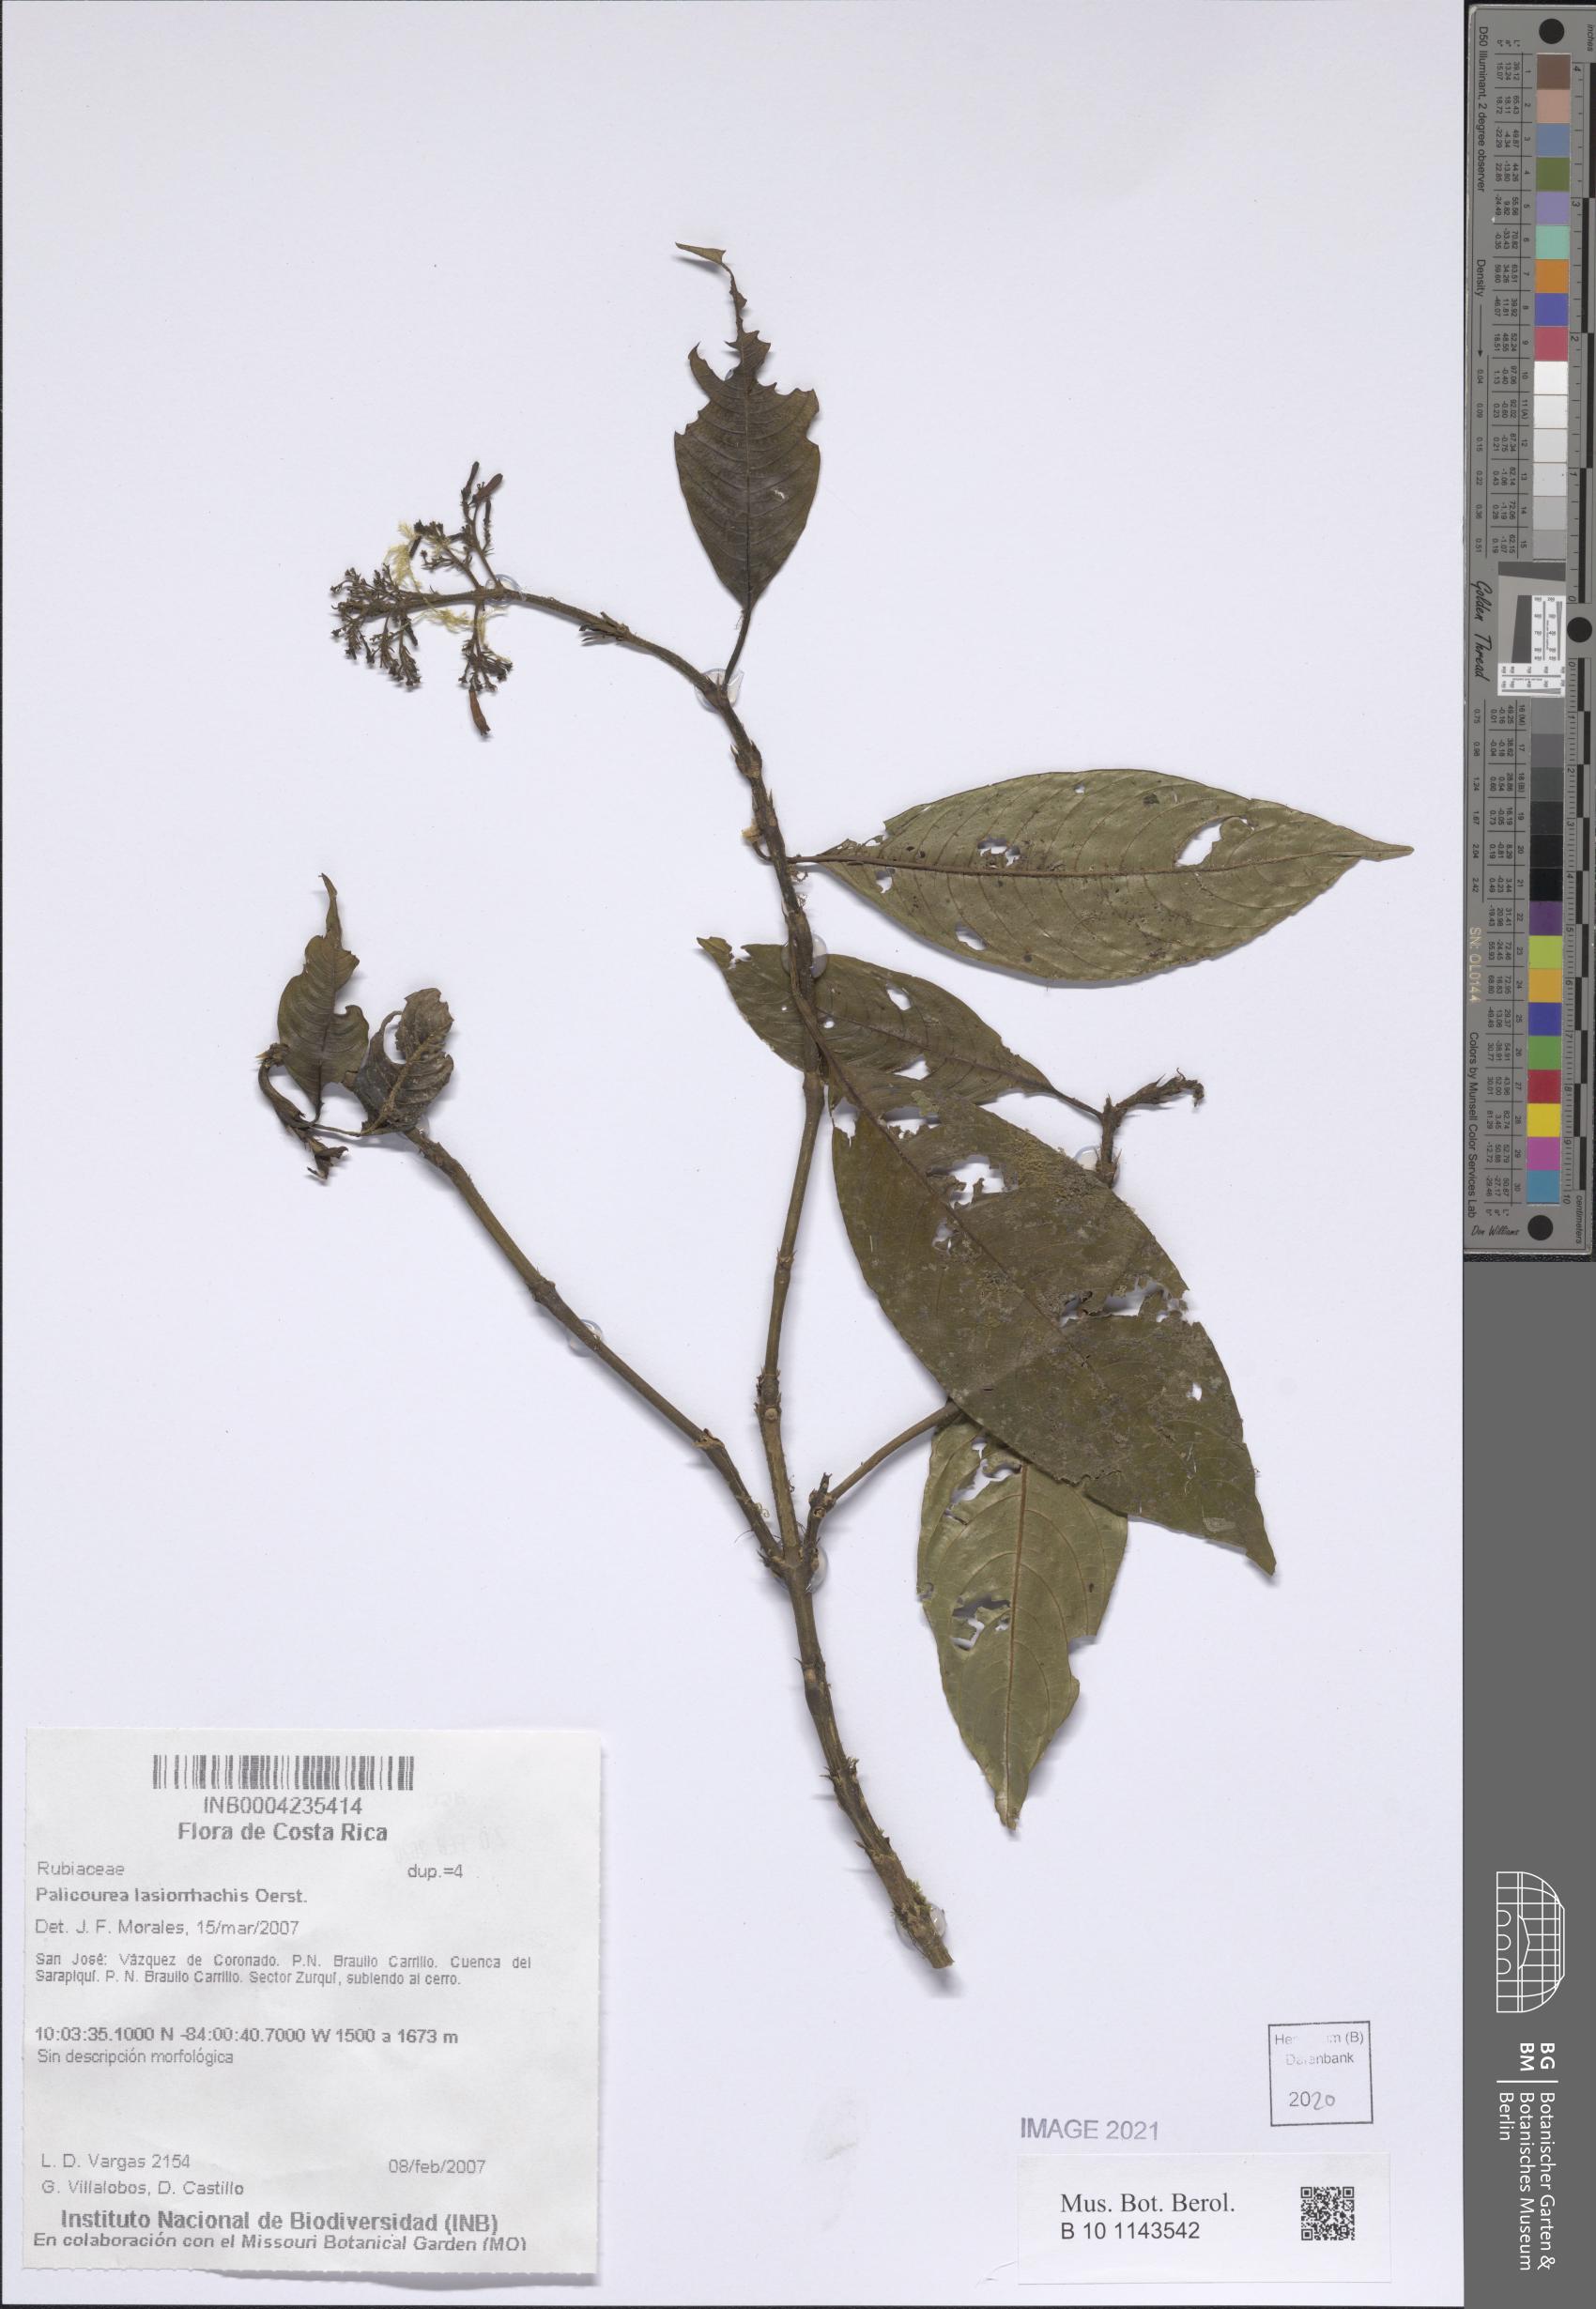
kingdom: Plantae
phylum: Tracheophyta
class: Magnoliopsida
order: Gentianales
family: Rubiaceae
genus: Palicourea
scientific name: Palicourea lasiorrhachis
